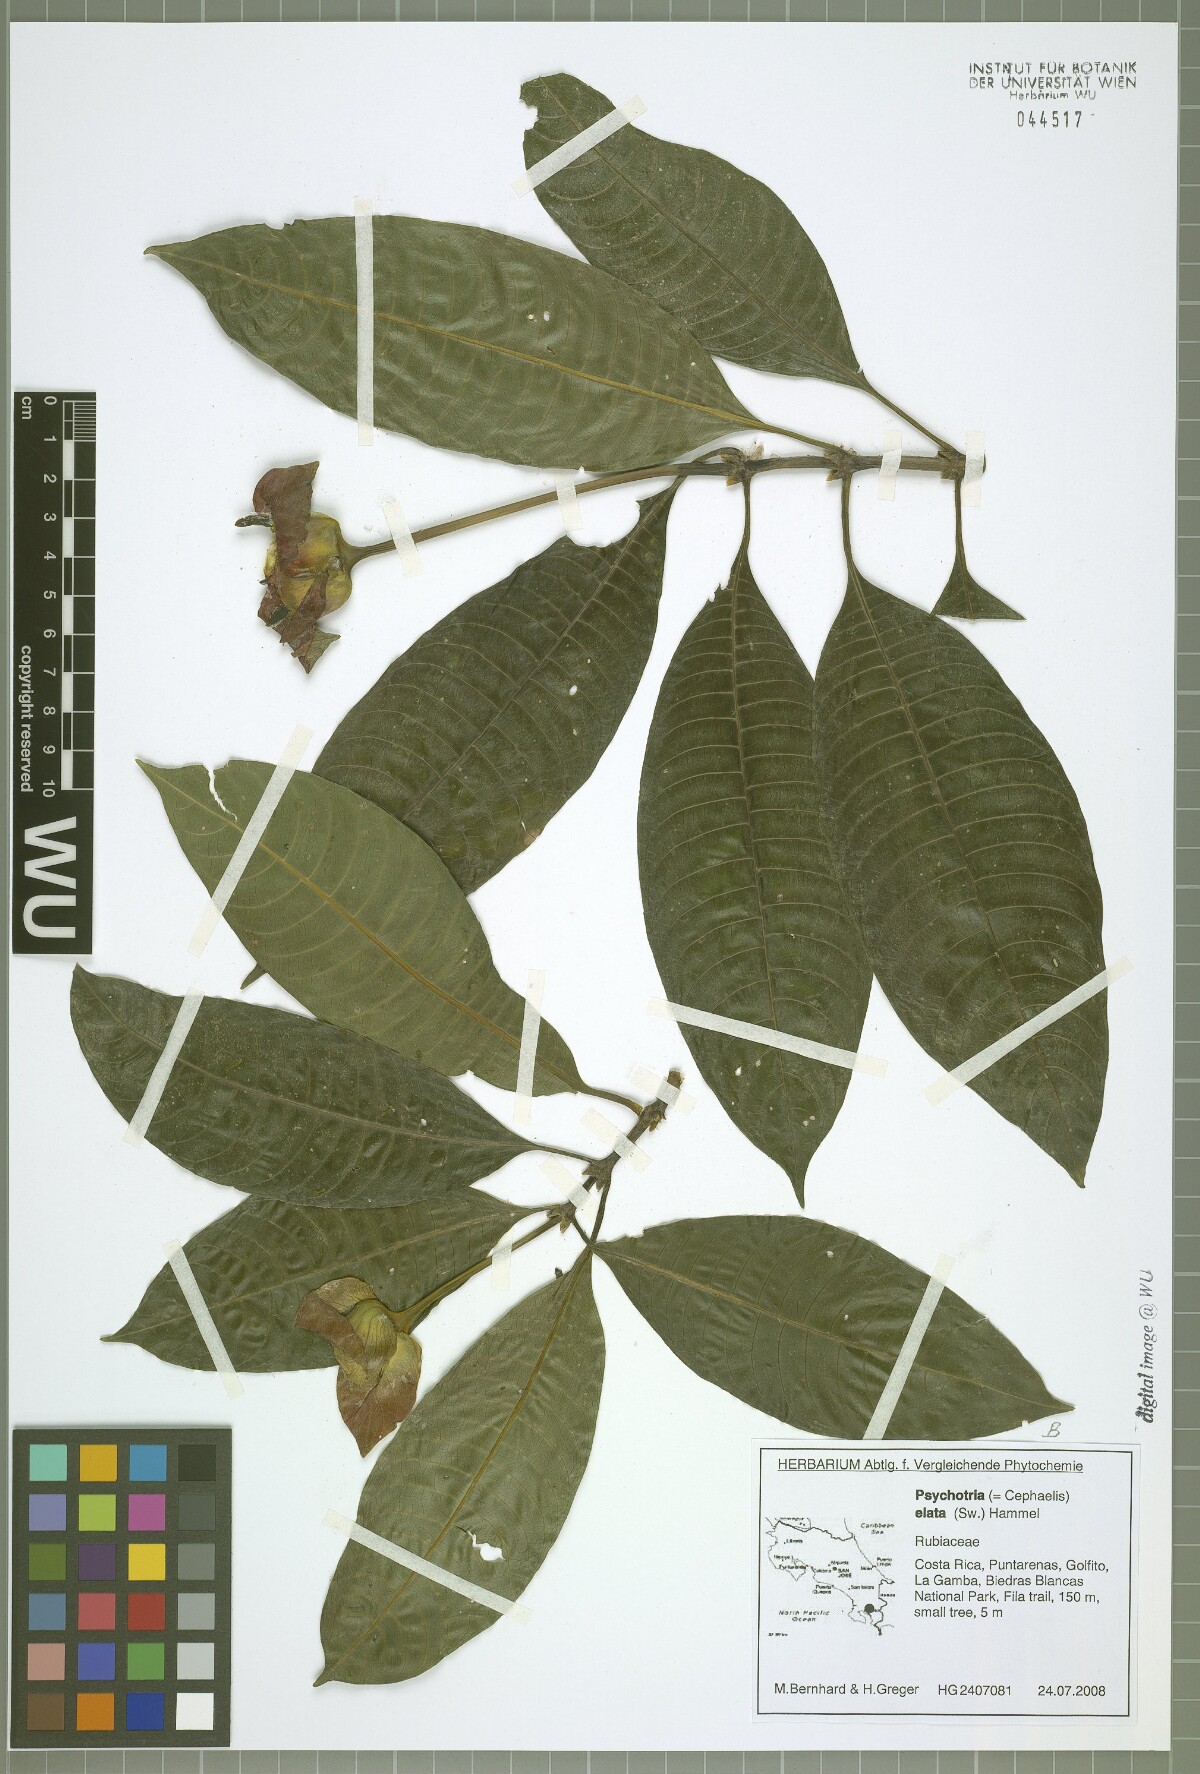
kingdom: Plantae
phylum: Tracheophyta
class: Magnoliopsida
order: Gentianales
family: Rubiaceae
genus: Palicourea
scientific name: Palicourea elata
